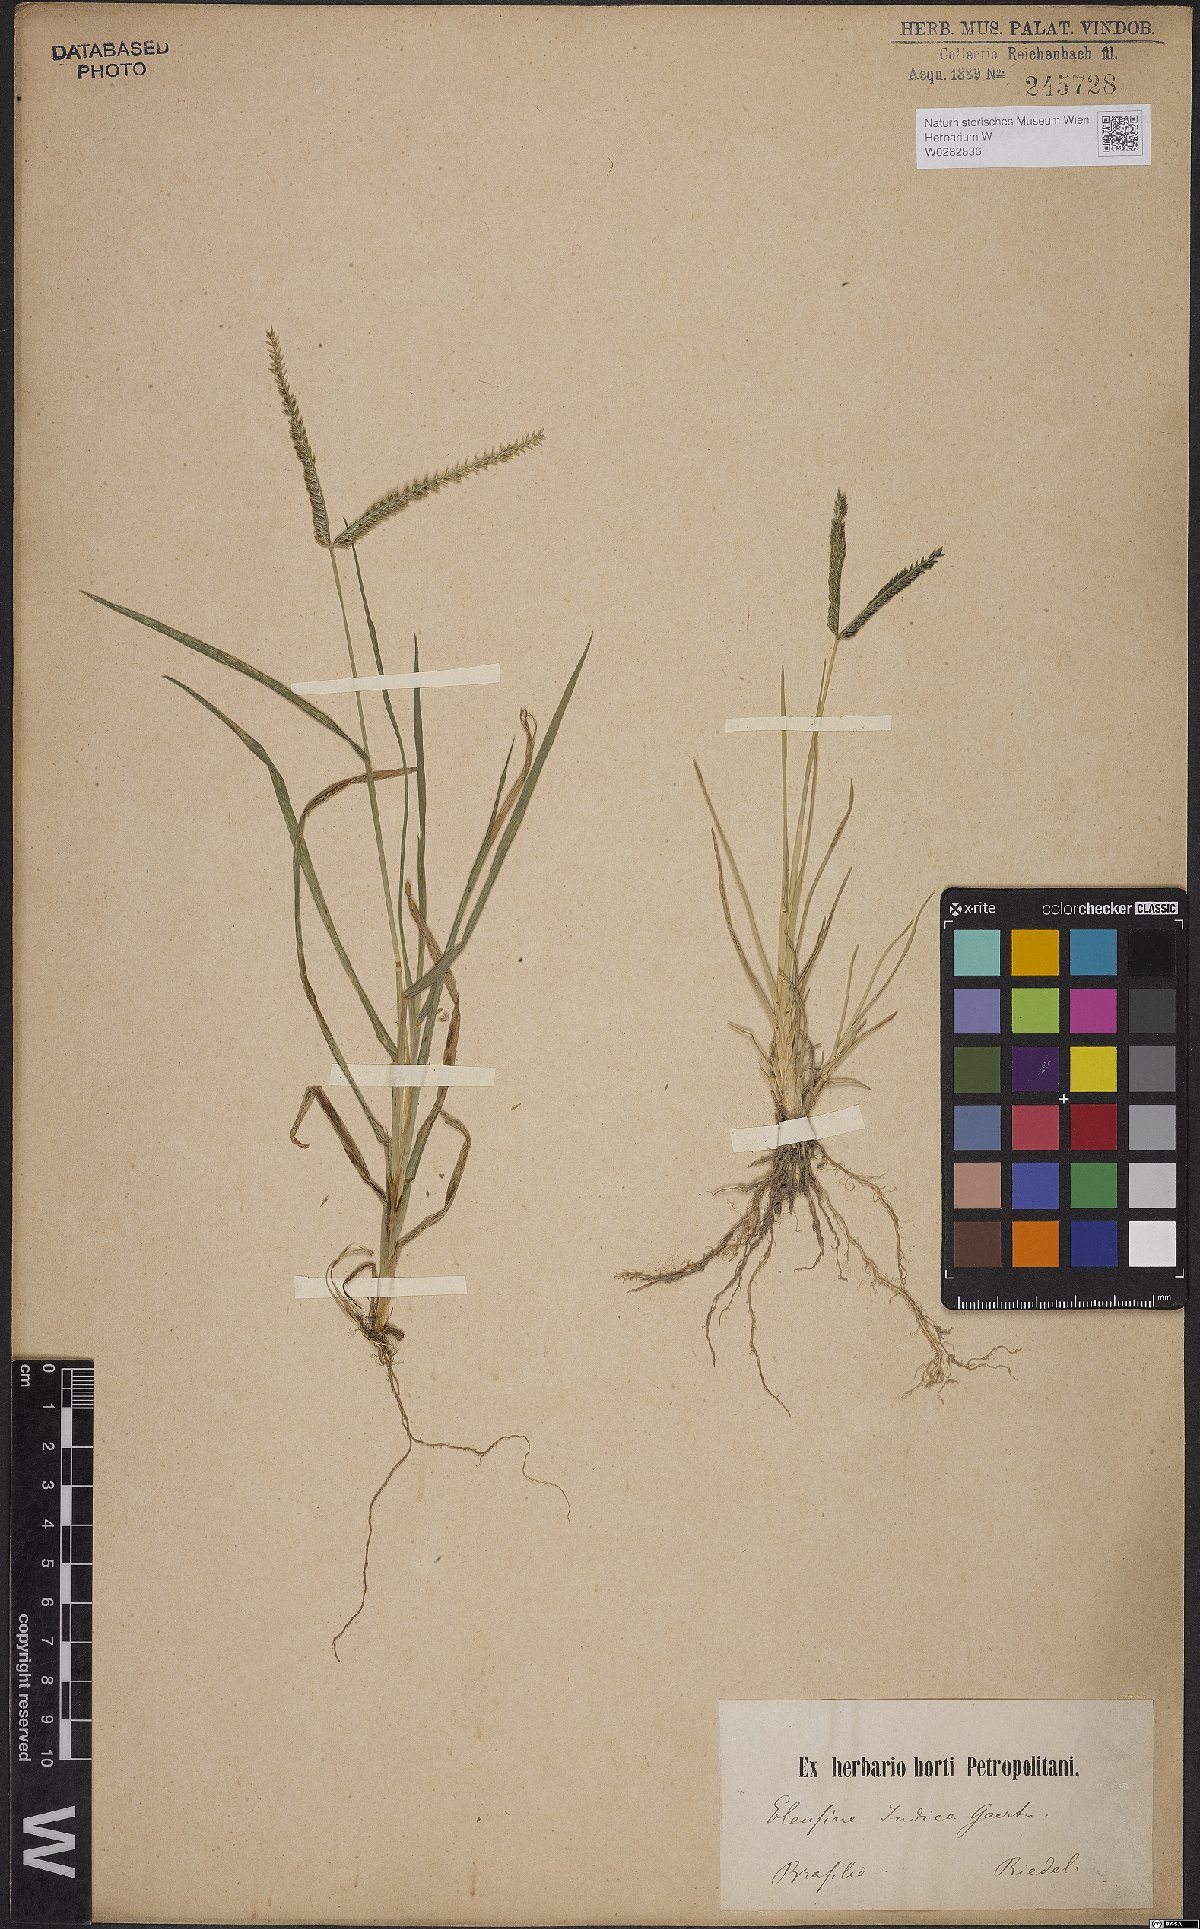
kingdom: Plantae
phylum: Tracheophyta
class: Liliopsida
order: Poales
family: Poaceae
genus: Eleusine
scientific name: Eleusine indica
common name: Yard-grass
